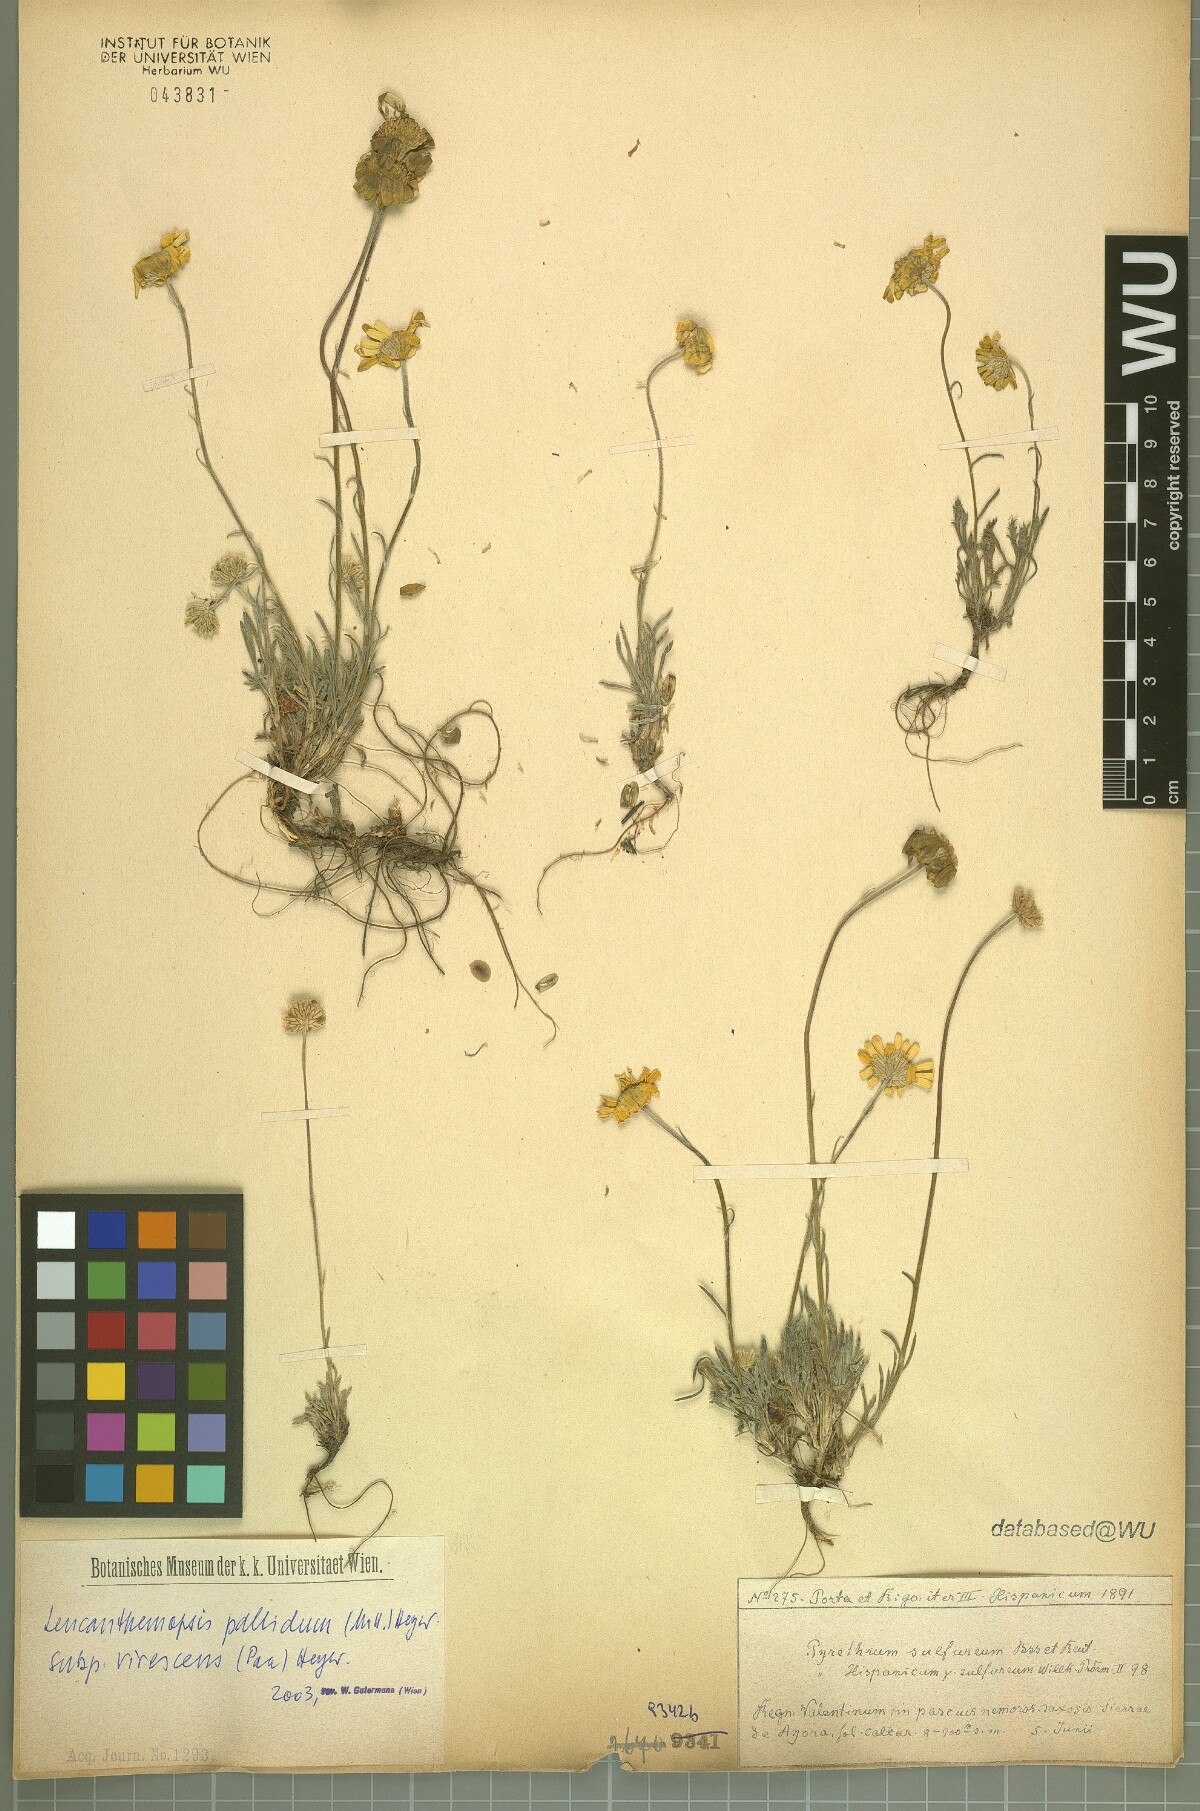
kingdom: Plantae
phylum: Tracheophyta
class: Magnoliopsida
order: Asterales
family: Asteraceae
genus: Leucanthemopsis
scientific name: Leucanthemopsis pallida
